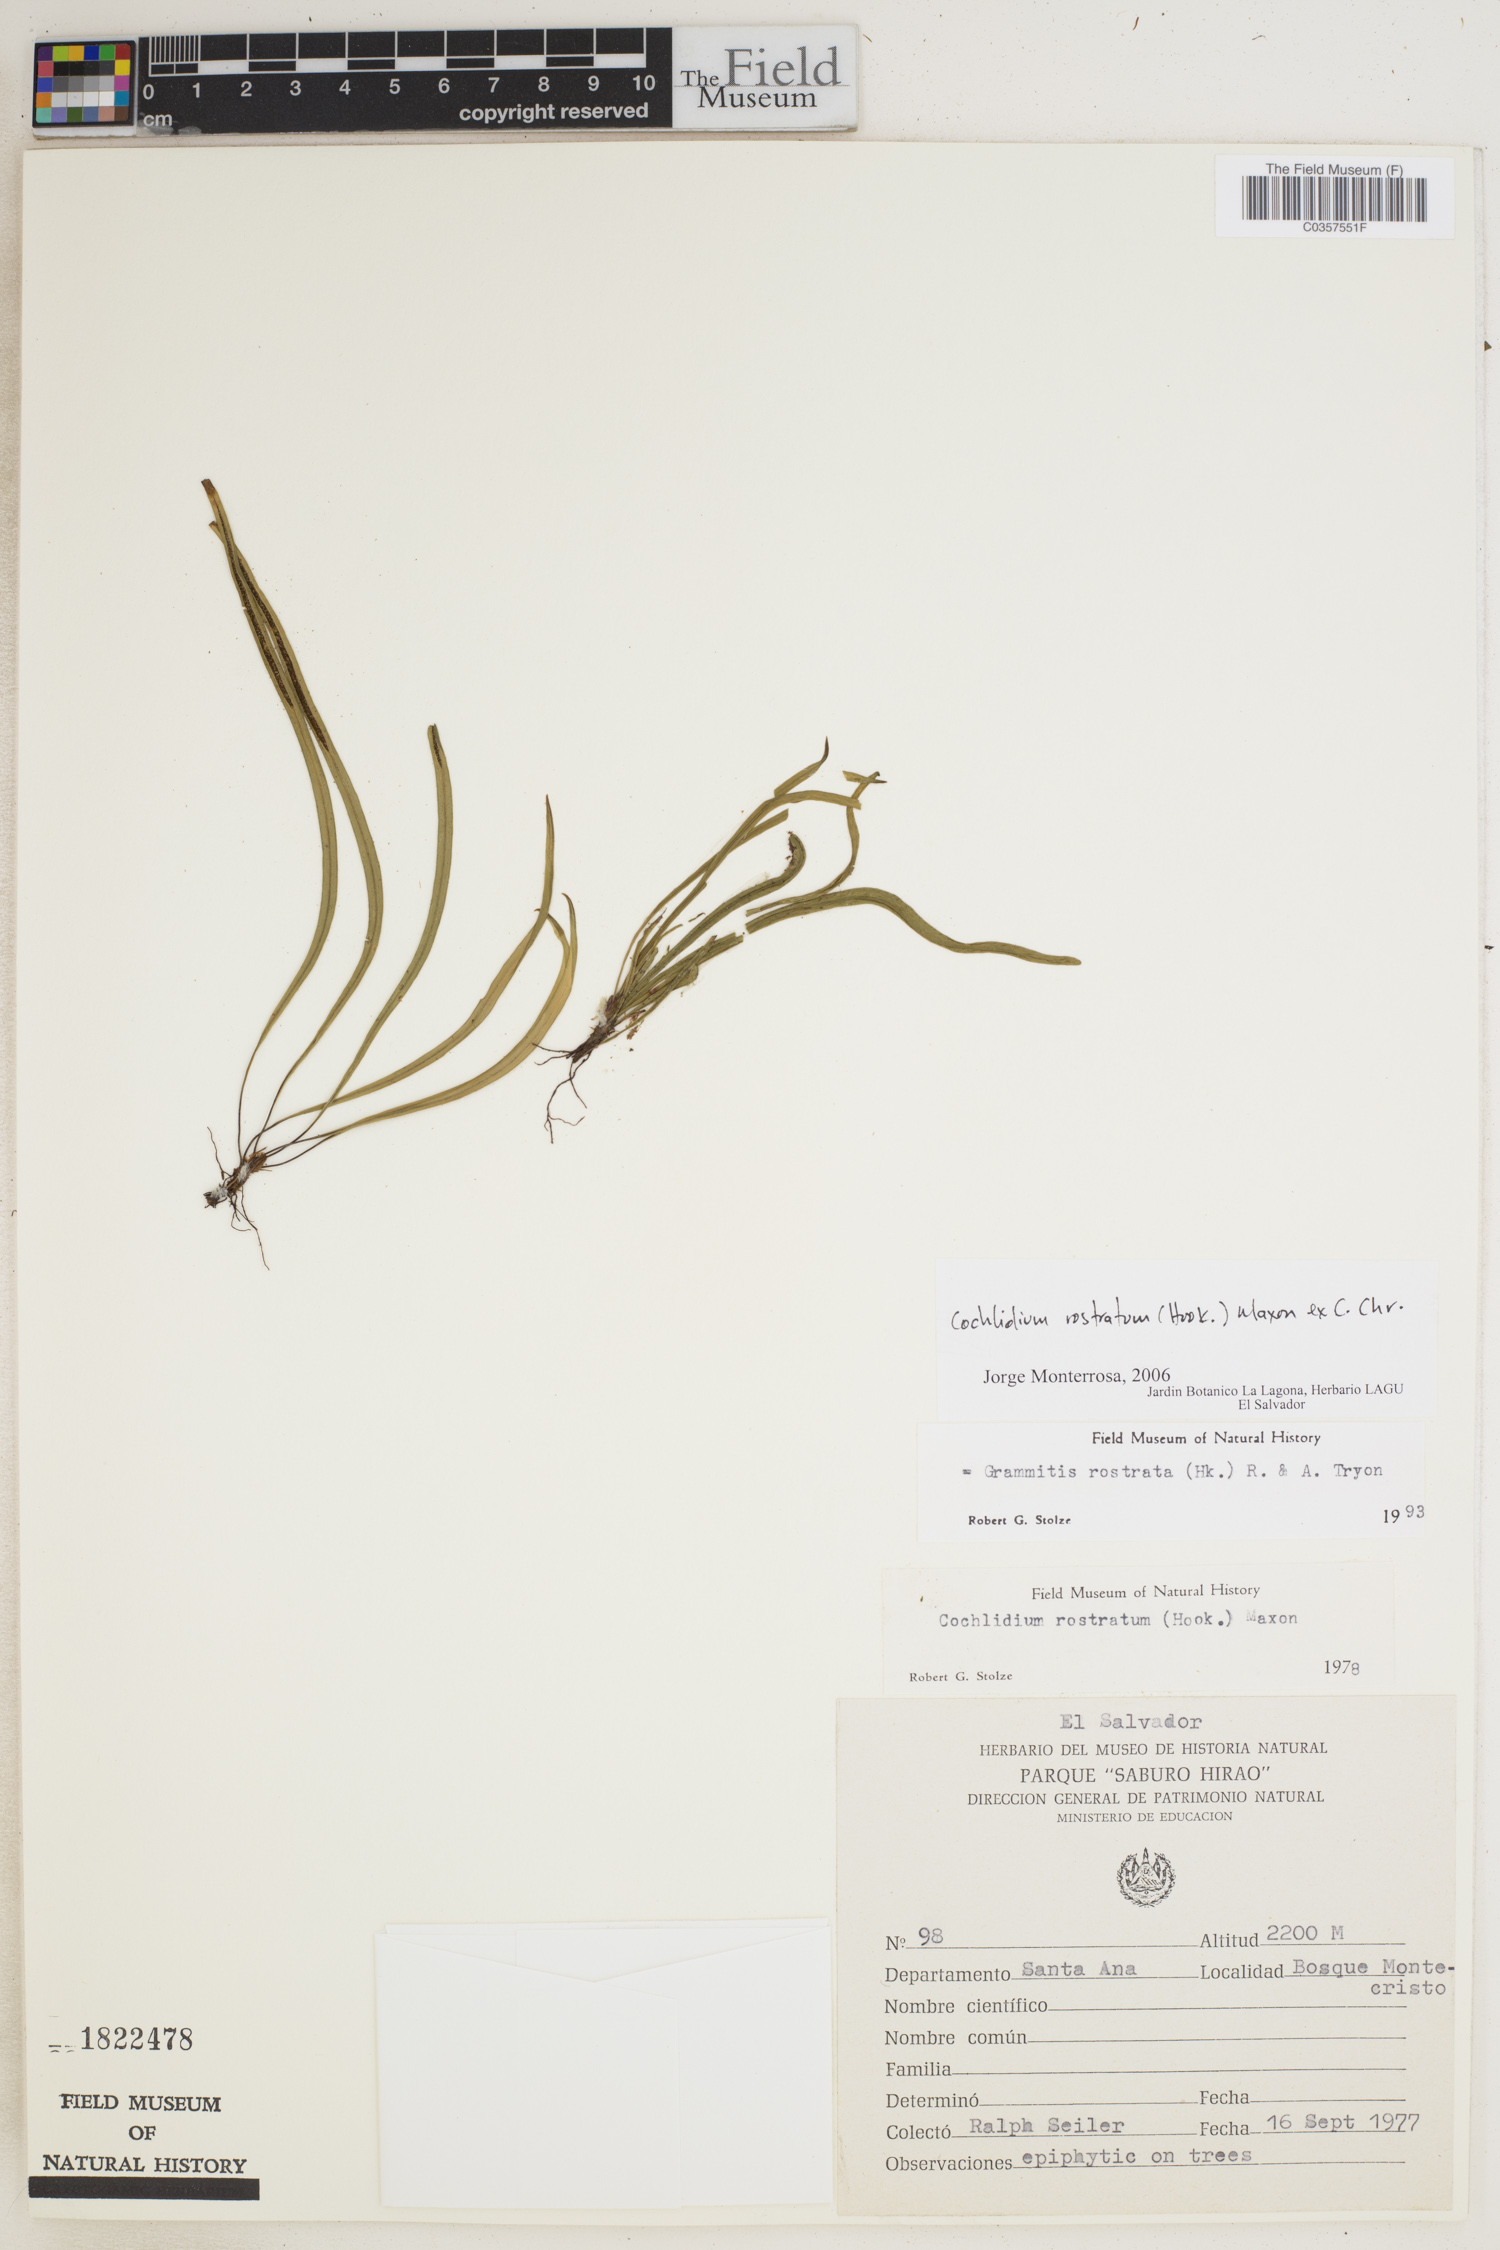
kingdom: Plantae
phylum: Tracheophyta
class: Polypodiopsida
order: Polypodiales
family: Polypodiaceae
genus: Cochlidium
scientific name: Cochlidium rostratum
